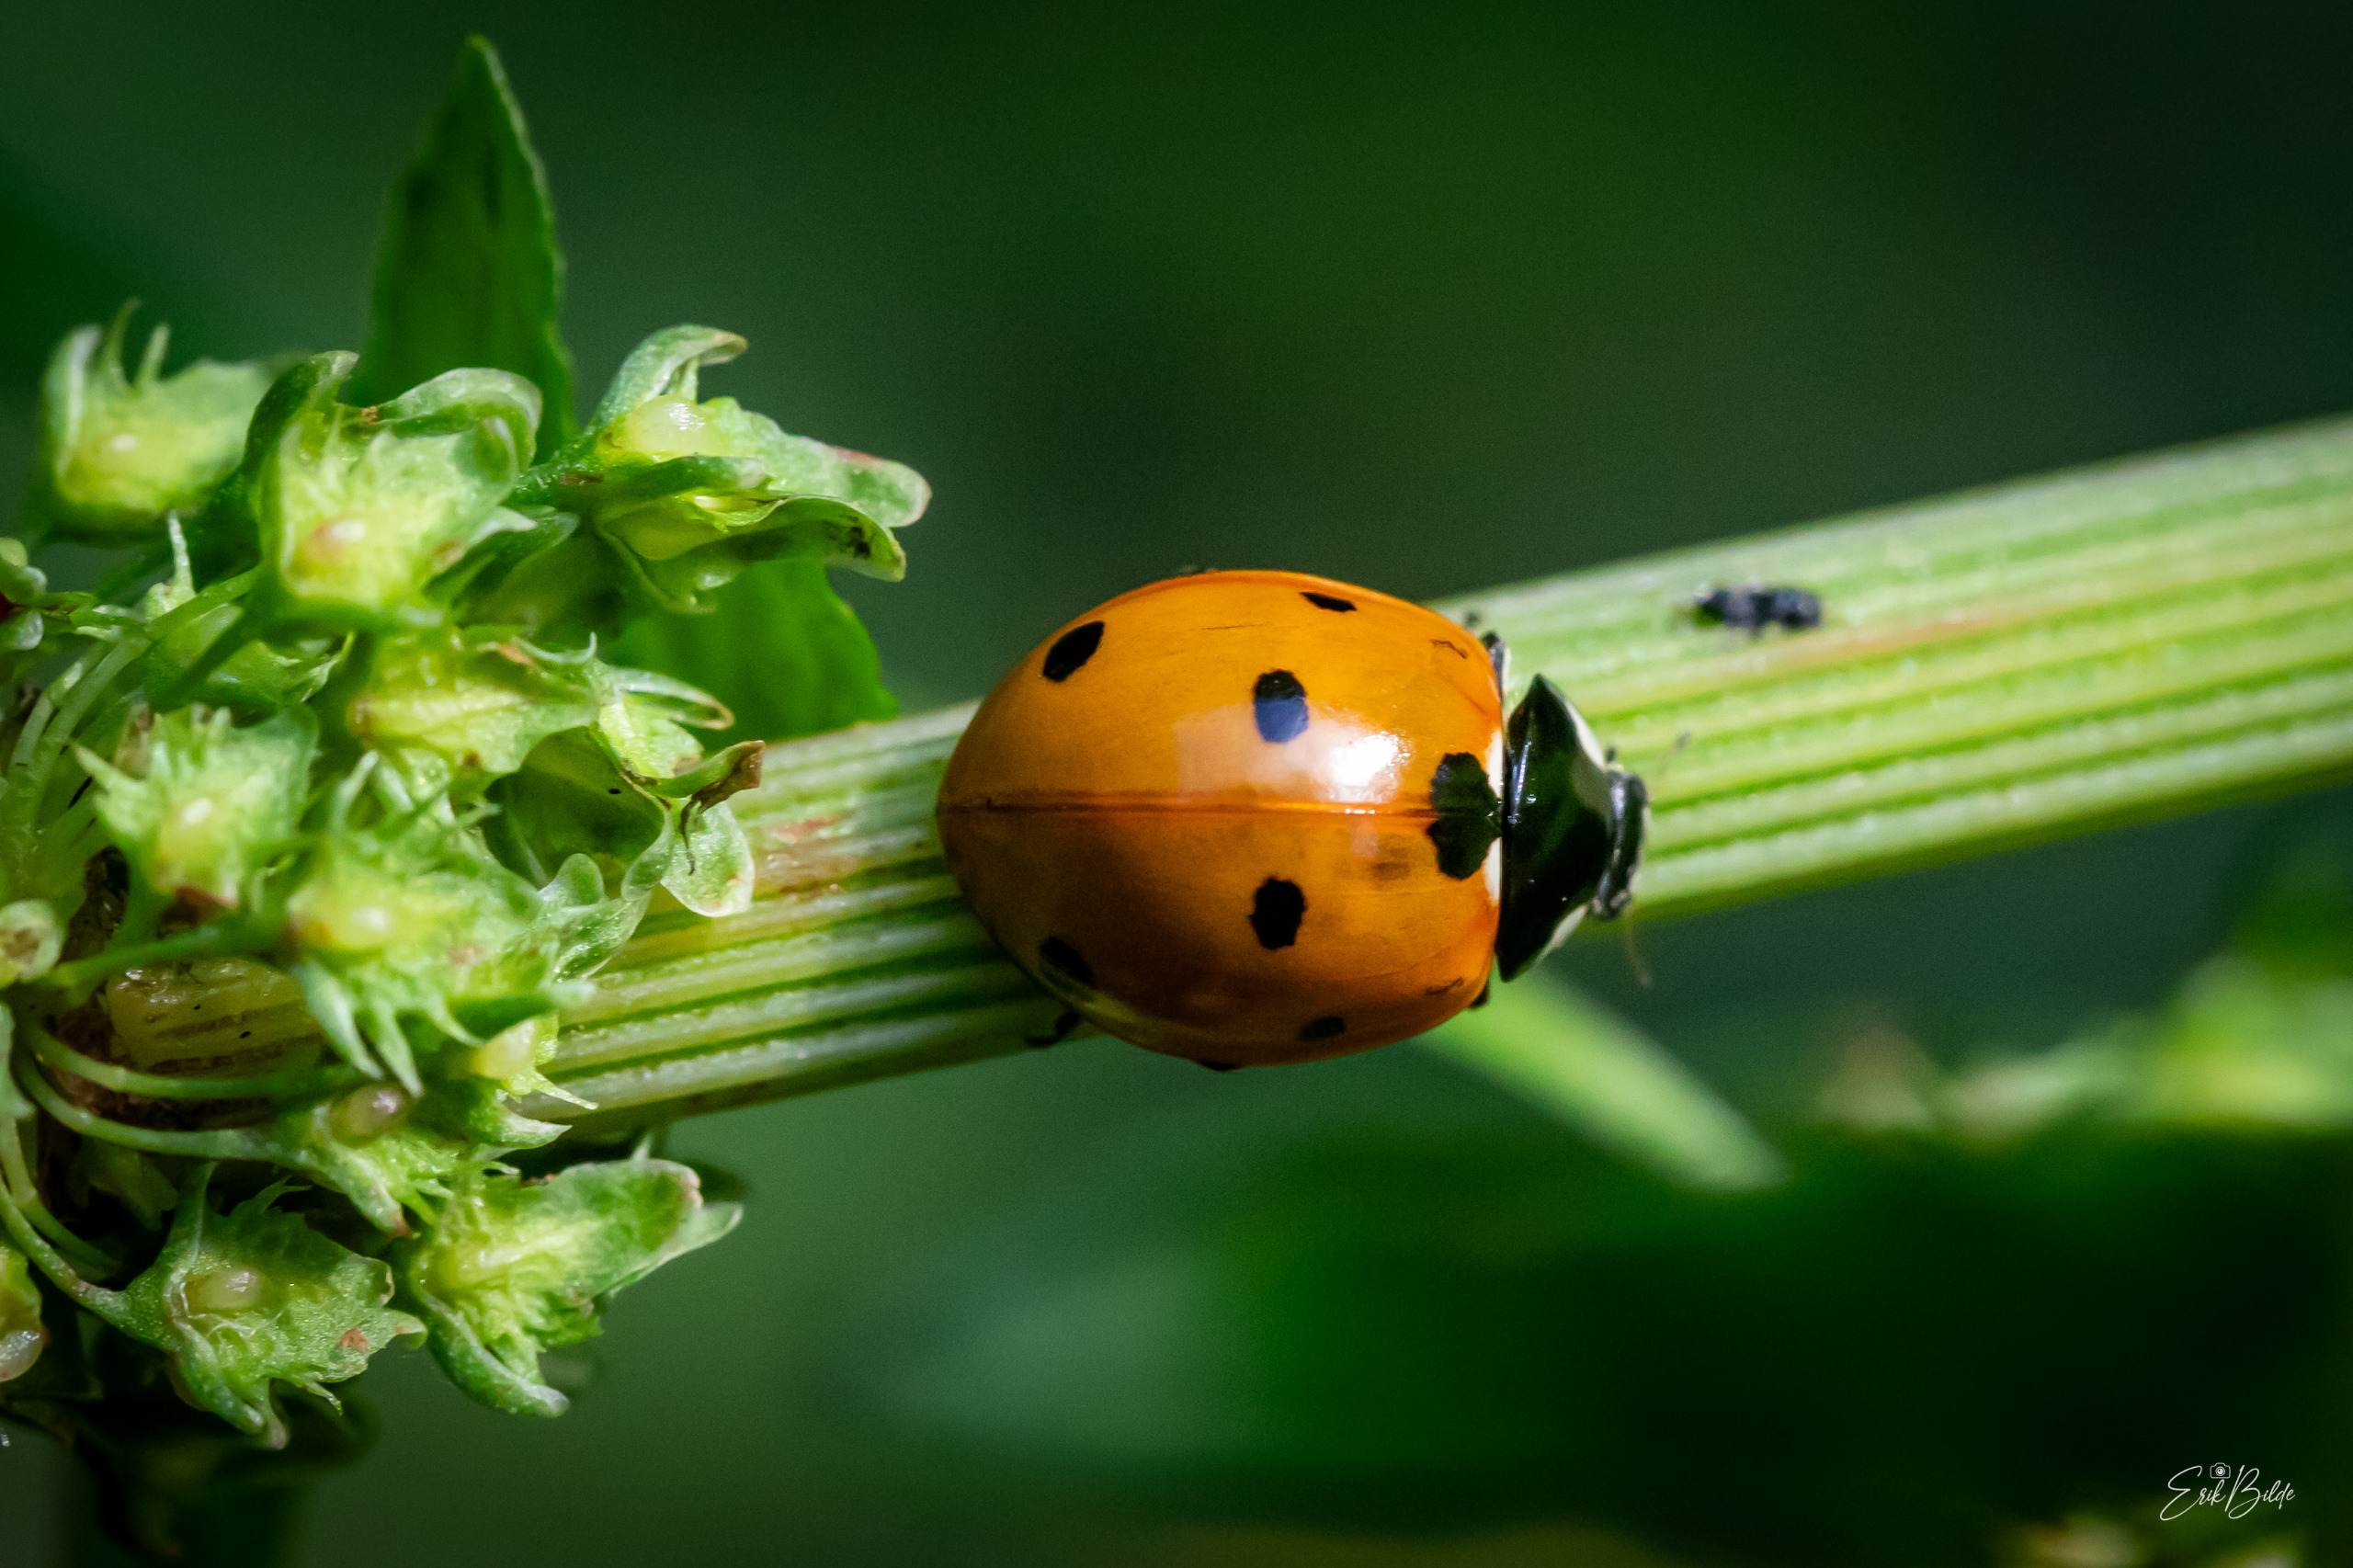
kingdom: Animalia
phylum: Arthropoda
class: Insecta
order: Coleoptera
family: Coccinellidae
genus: Coccinella
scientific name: Coccinella septempunctata
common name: Syvplettet mariehøne
